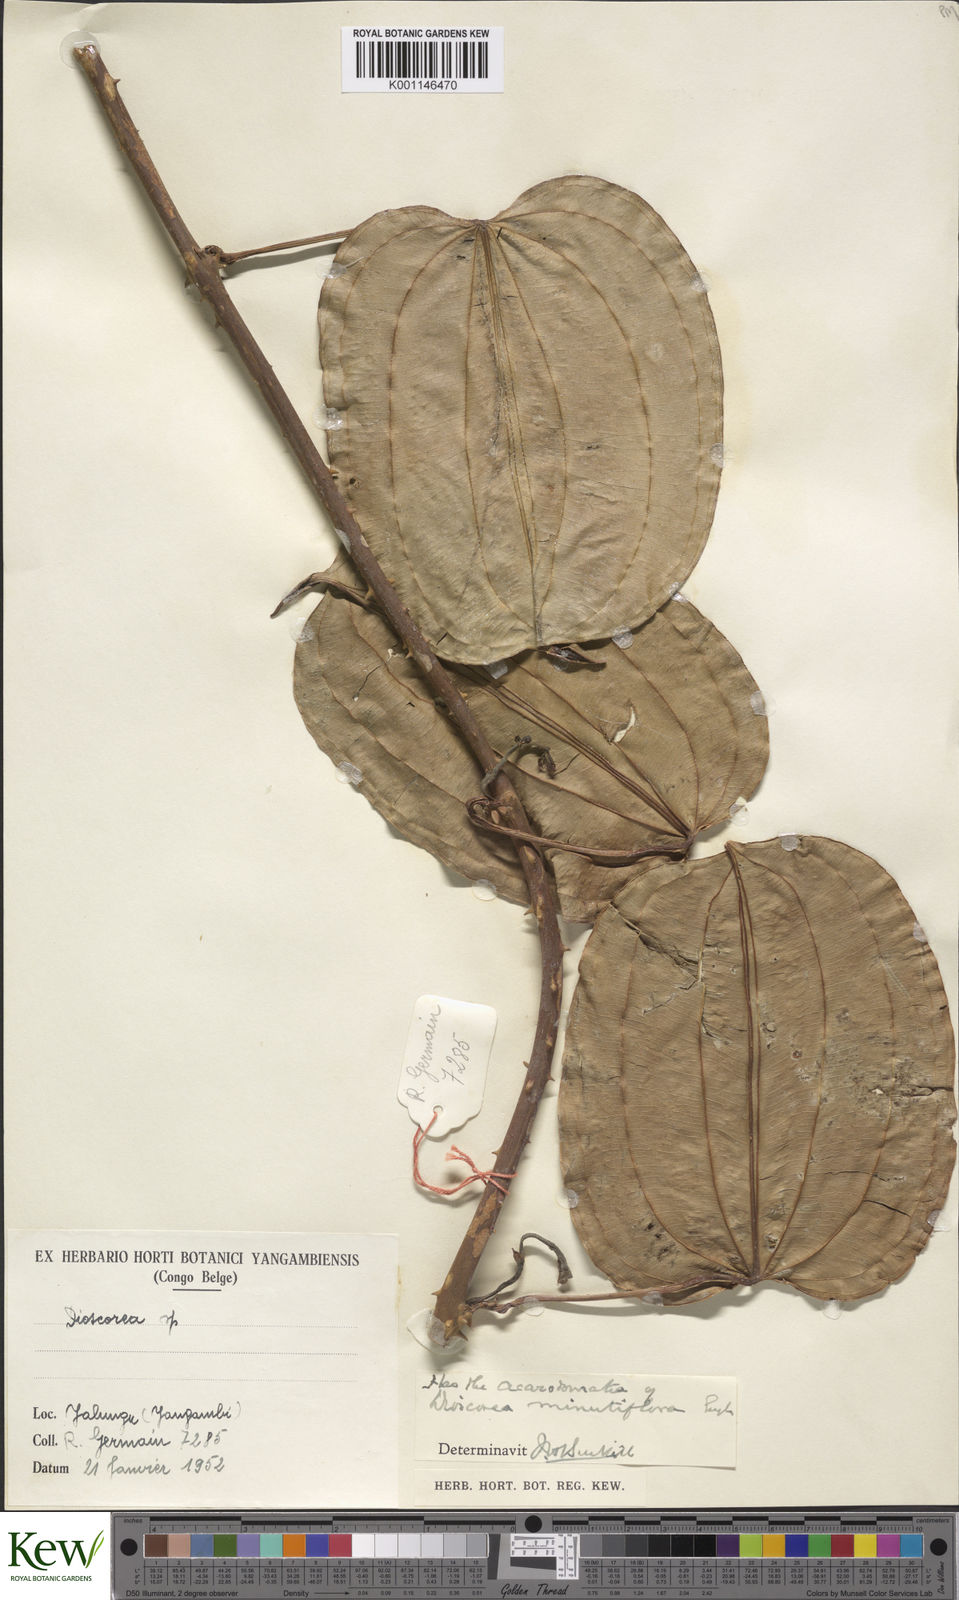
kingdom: Plantae
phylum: Tracheophyta
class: Liliopsida
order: Dioscoreales
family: Dioscoreaceae
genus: Dioscorea
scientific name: Dioscorea minutiflora
